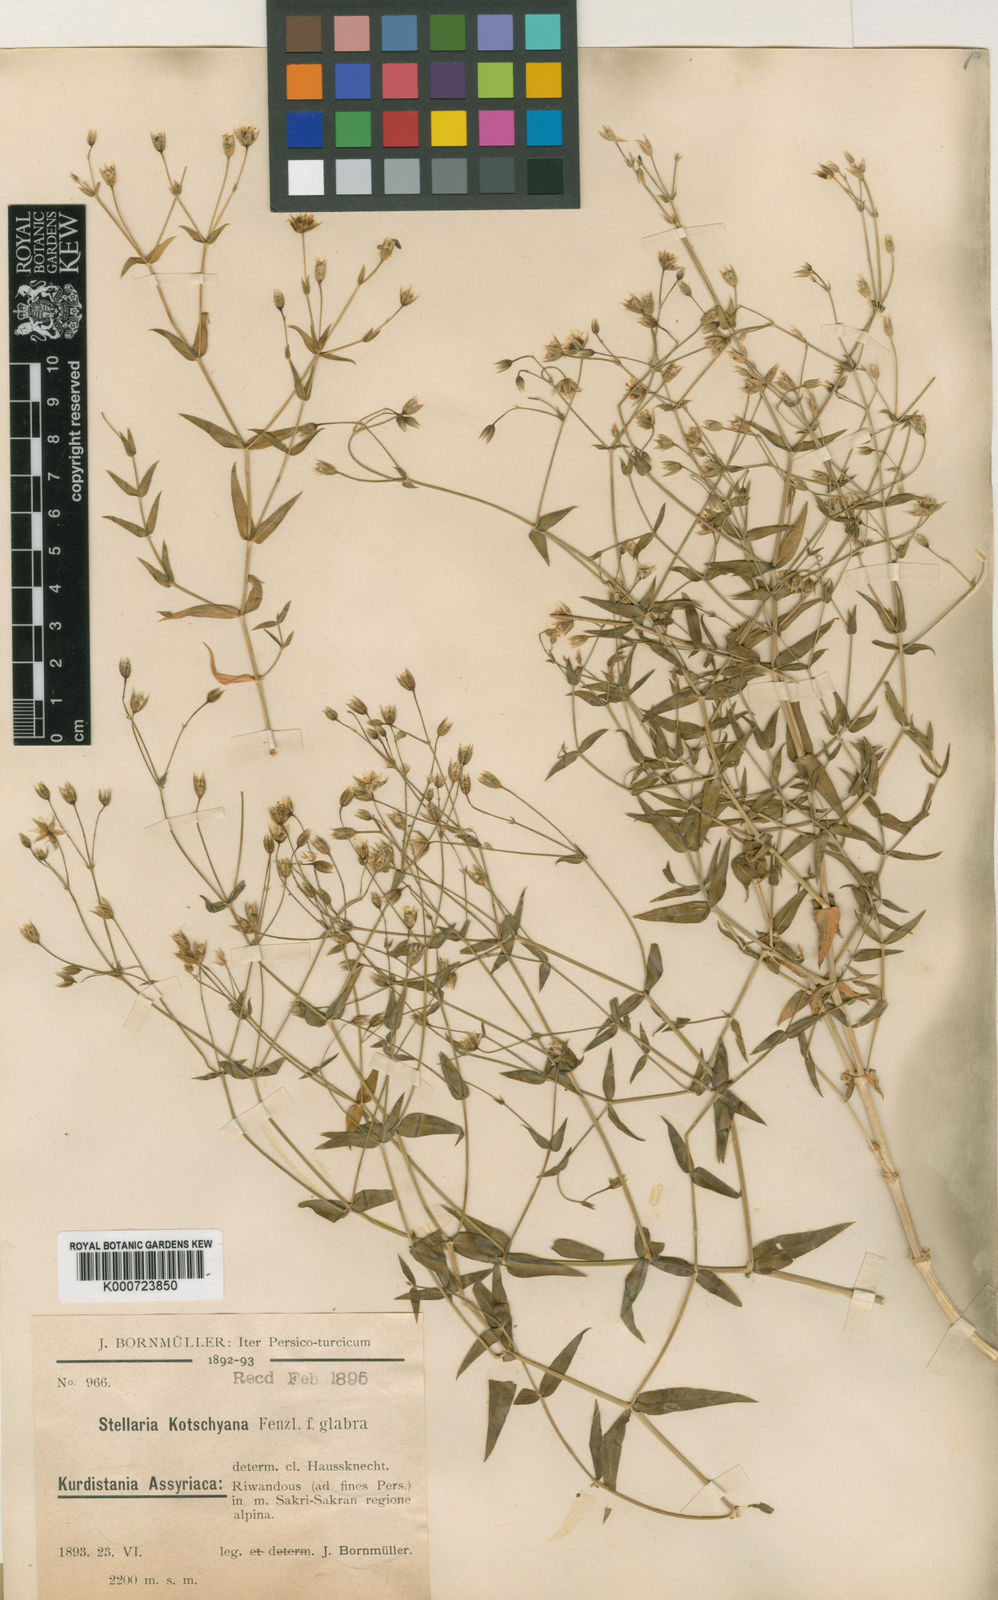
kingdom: Plantae
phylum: Tracheophyta
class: Magnoliopsida
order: Caryophyllales
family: Caryophyllaceae
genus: Mesostemma
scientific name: Mesostemma
